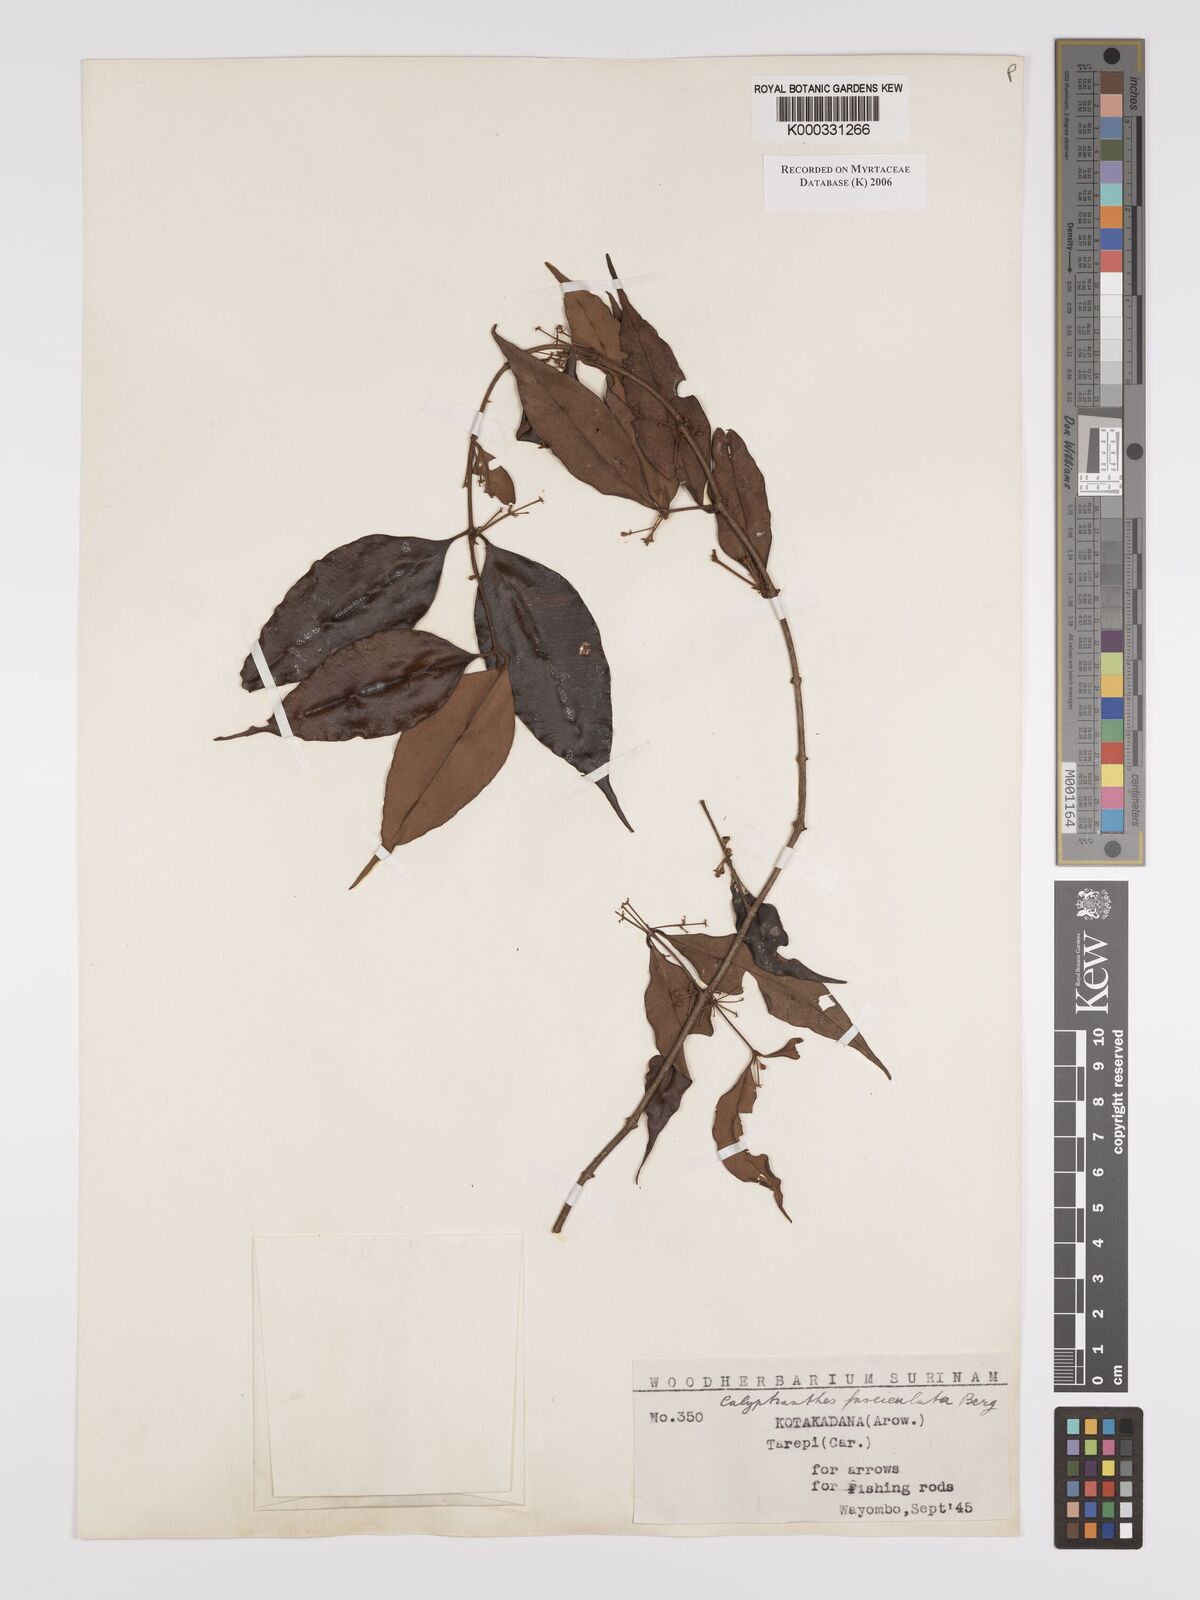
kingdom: Plantae
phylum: Tracheophyta
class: Magnoliopsida
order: Myrtales
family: Myrtaceae
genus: Myrcia
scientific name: Myrcia fasciculata
